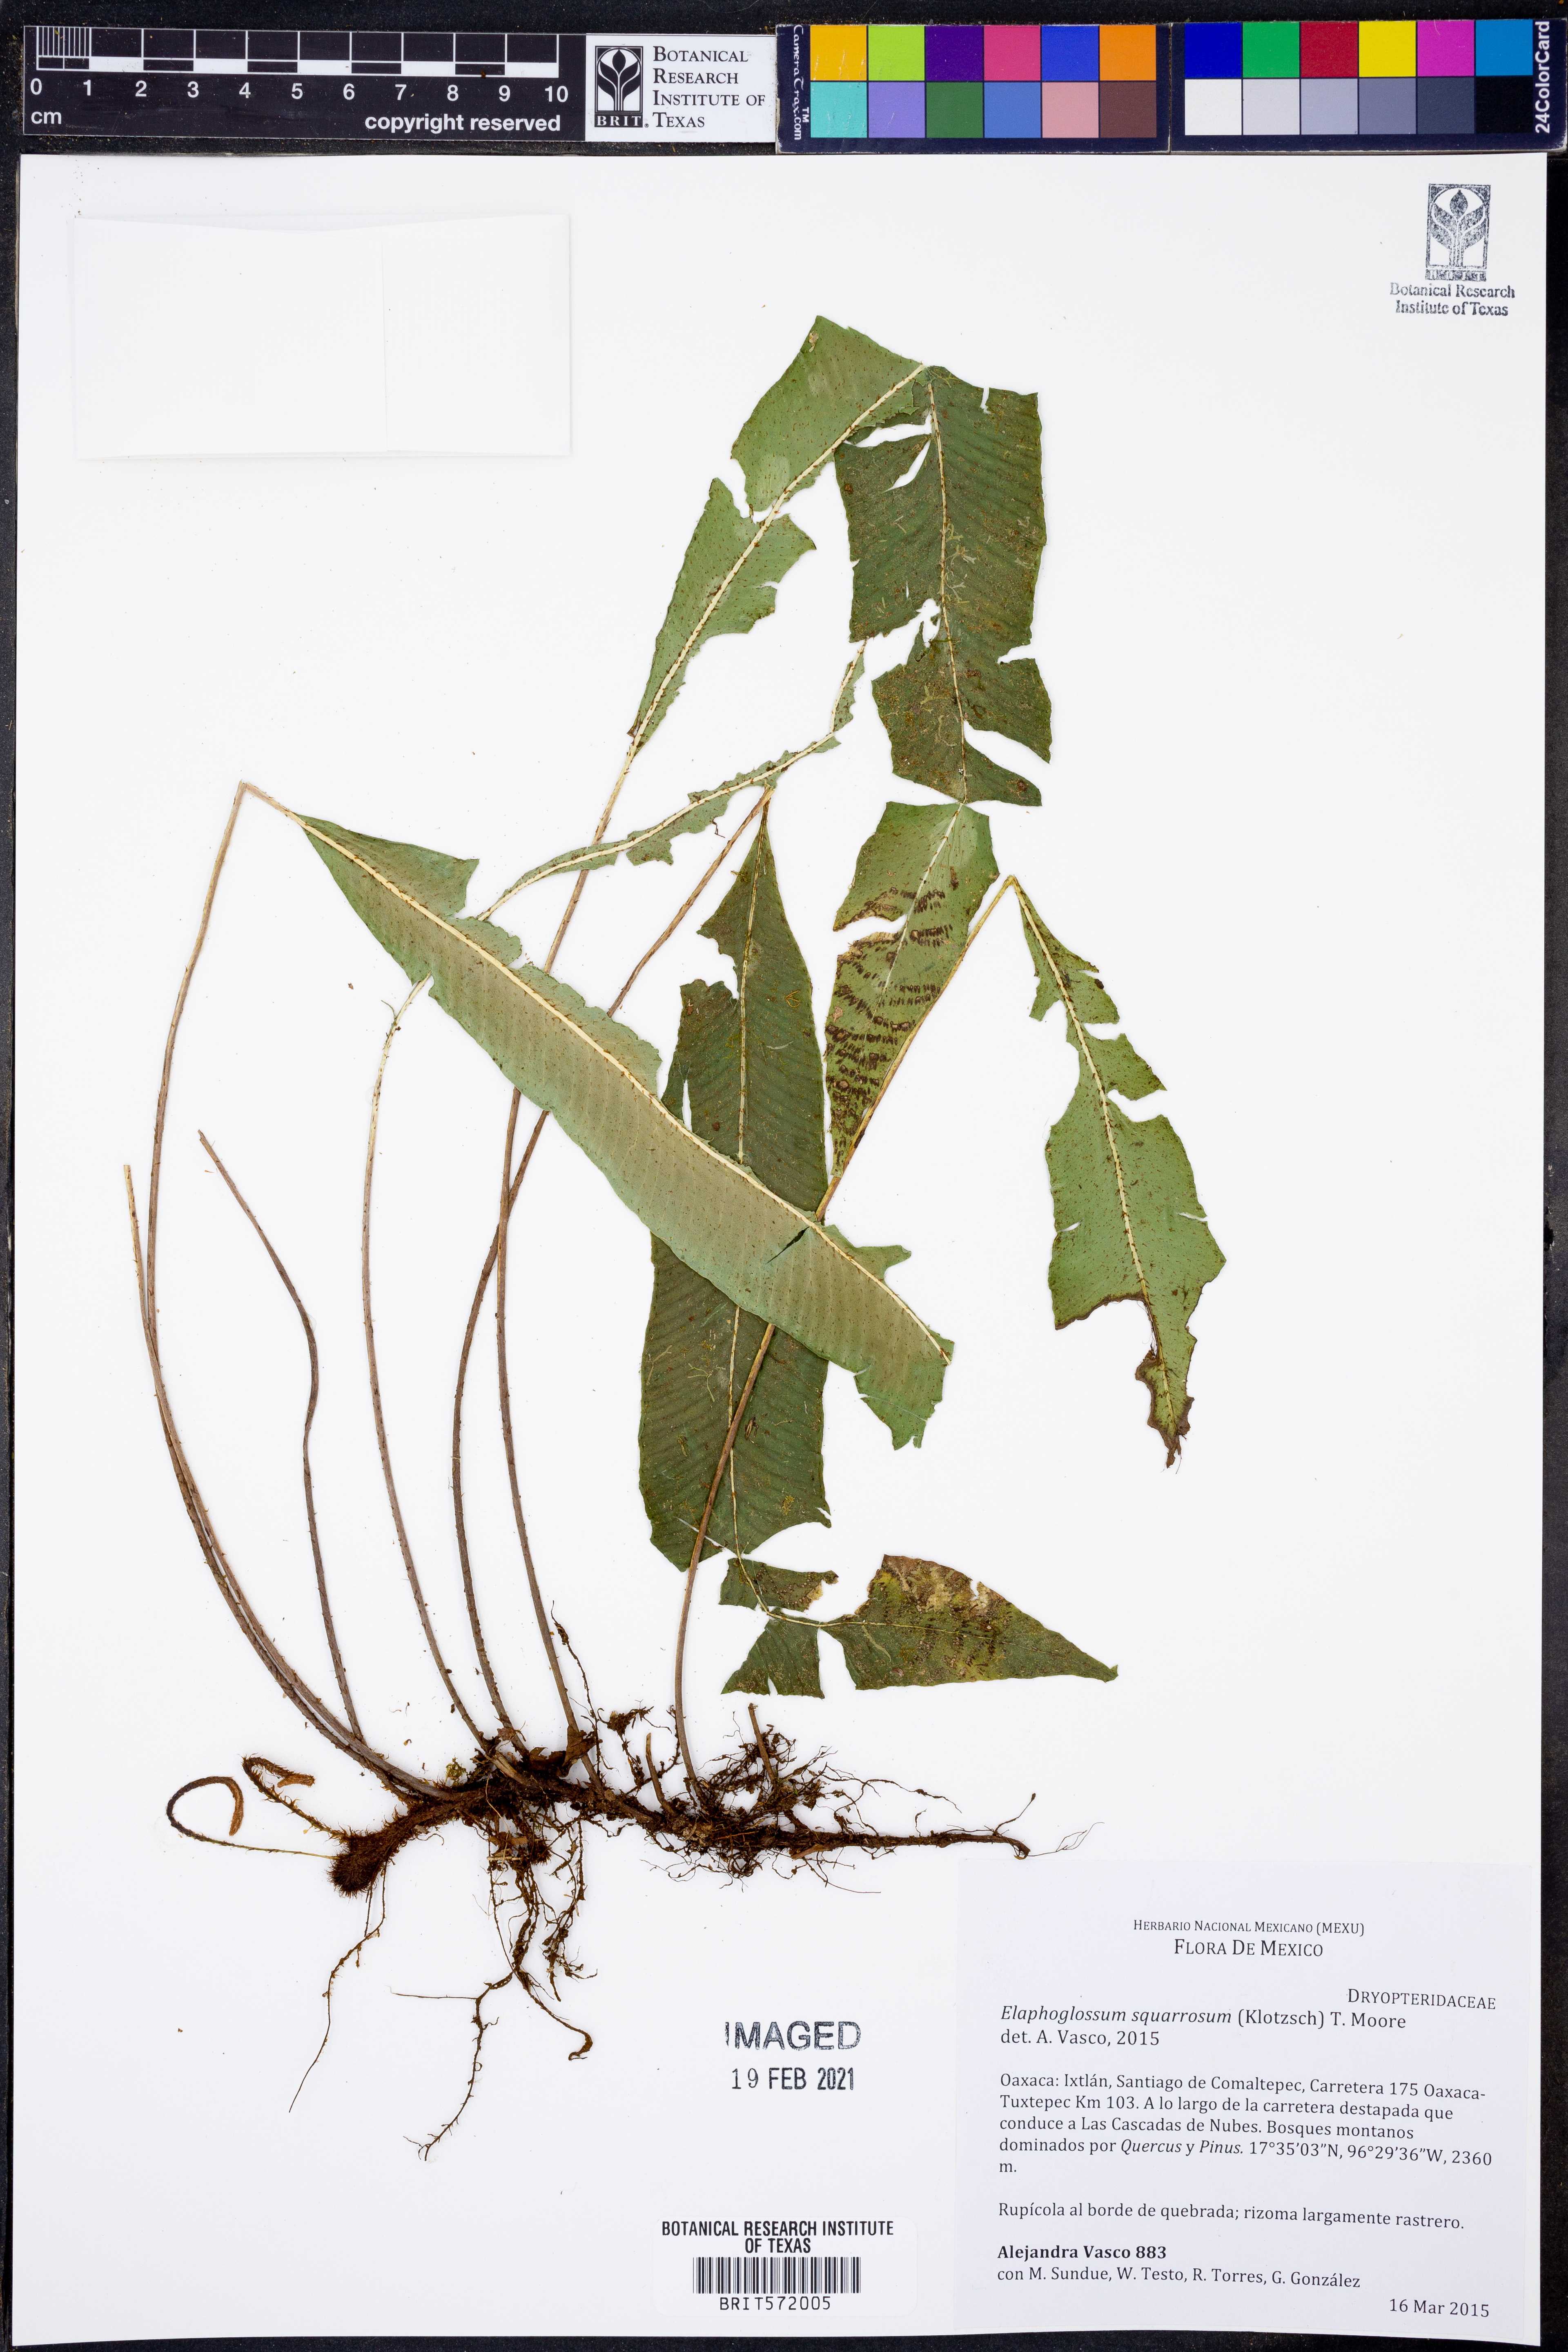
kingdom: Plantae
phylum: Tracheophyta
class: Polypodiopsida
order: Polypodiales
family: Dryopteridaceae
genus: Elaphoglossum
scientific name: Elaphoglossum squarrosum
